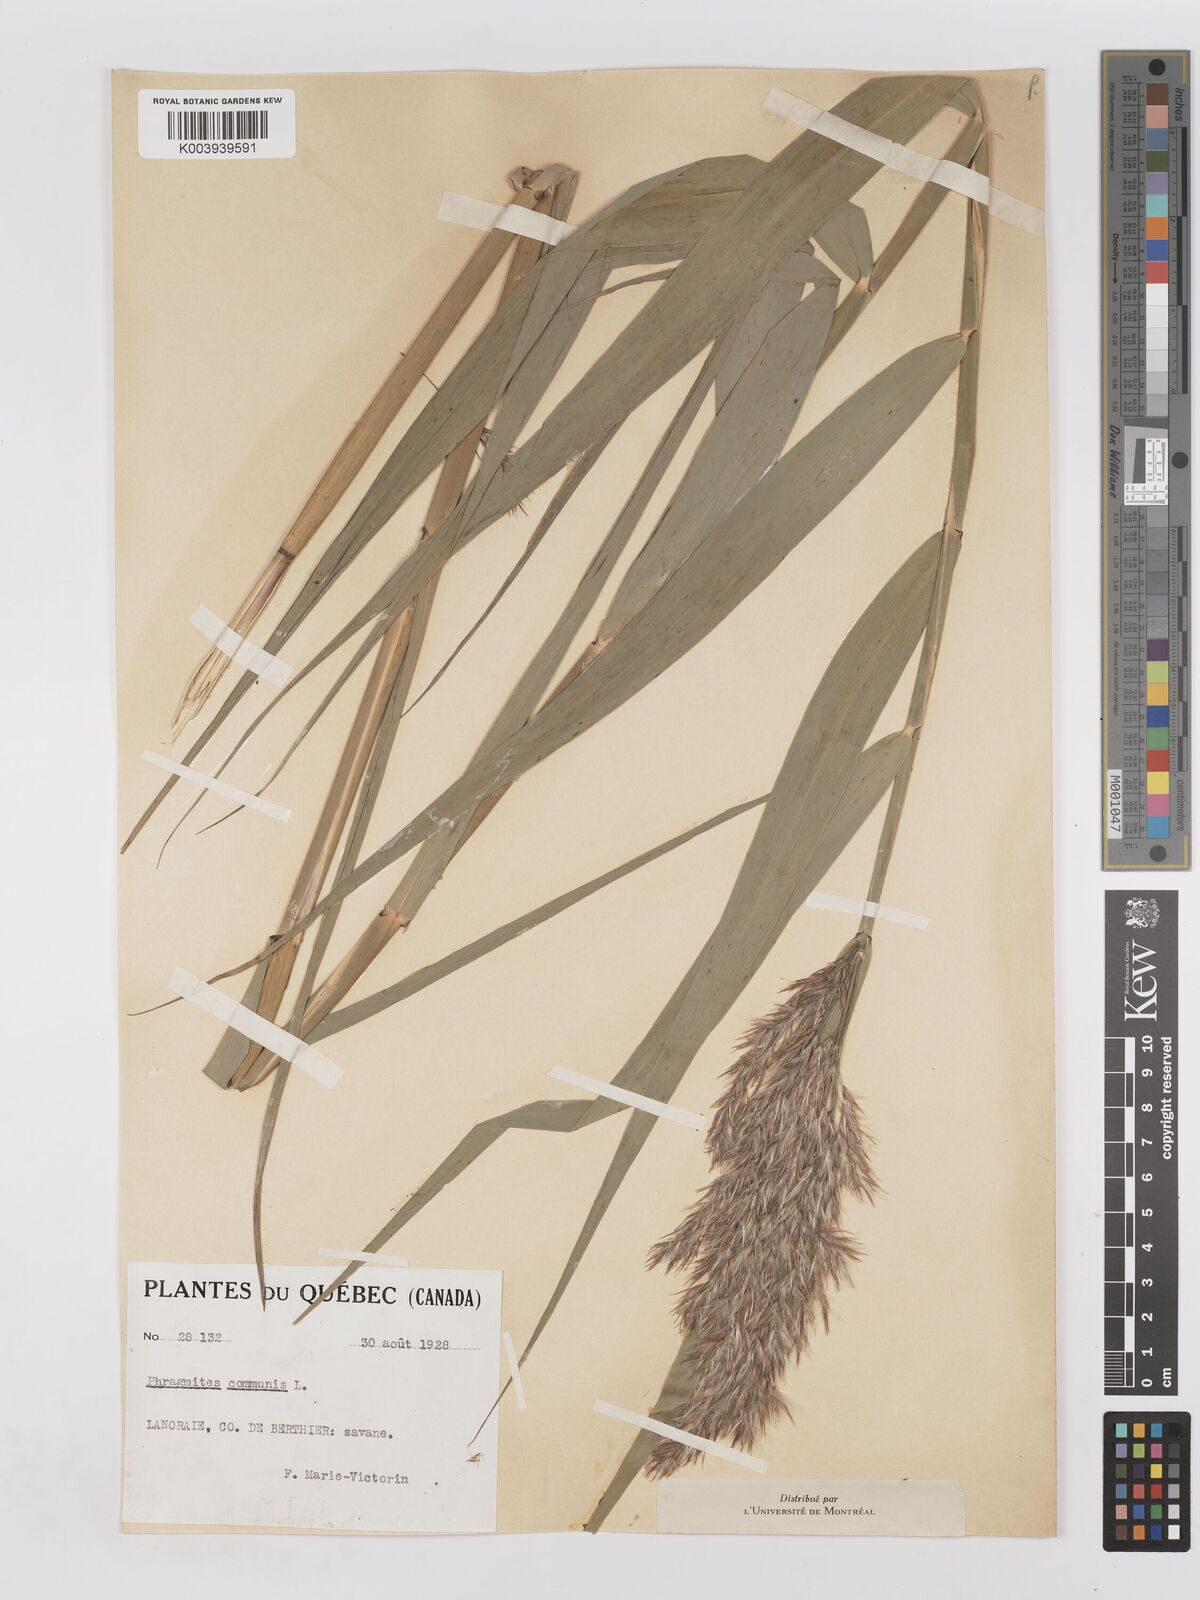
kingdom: Plantae
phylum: Tracheophyta
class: Liliopsida
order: Poales
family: Poaceae
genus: Phragmites
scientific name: Phragmites australis
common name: Common reed
